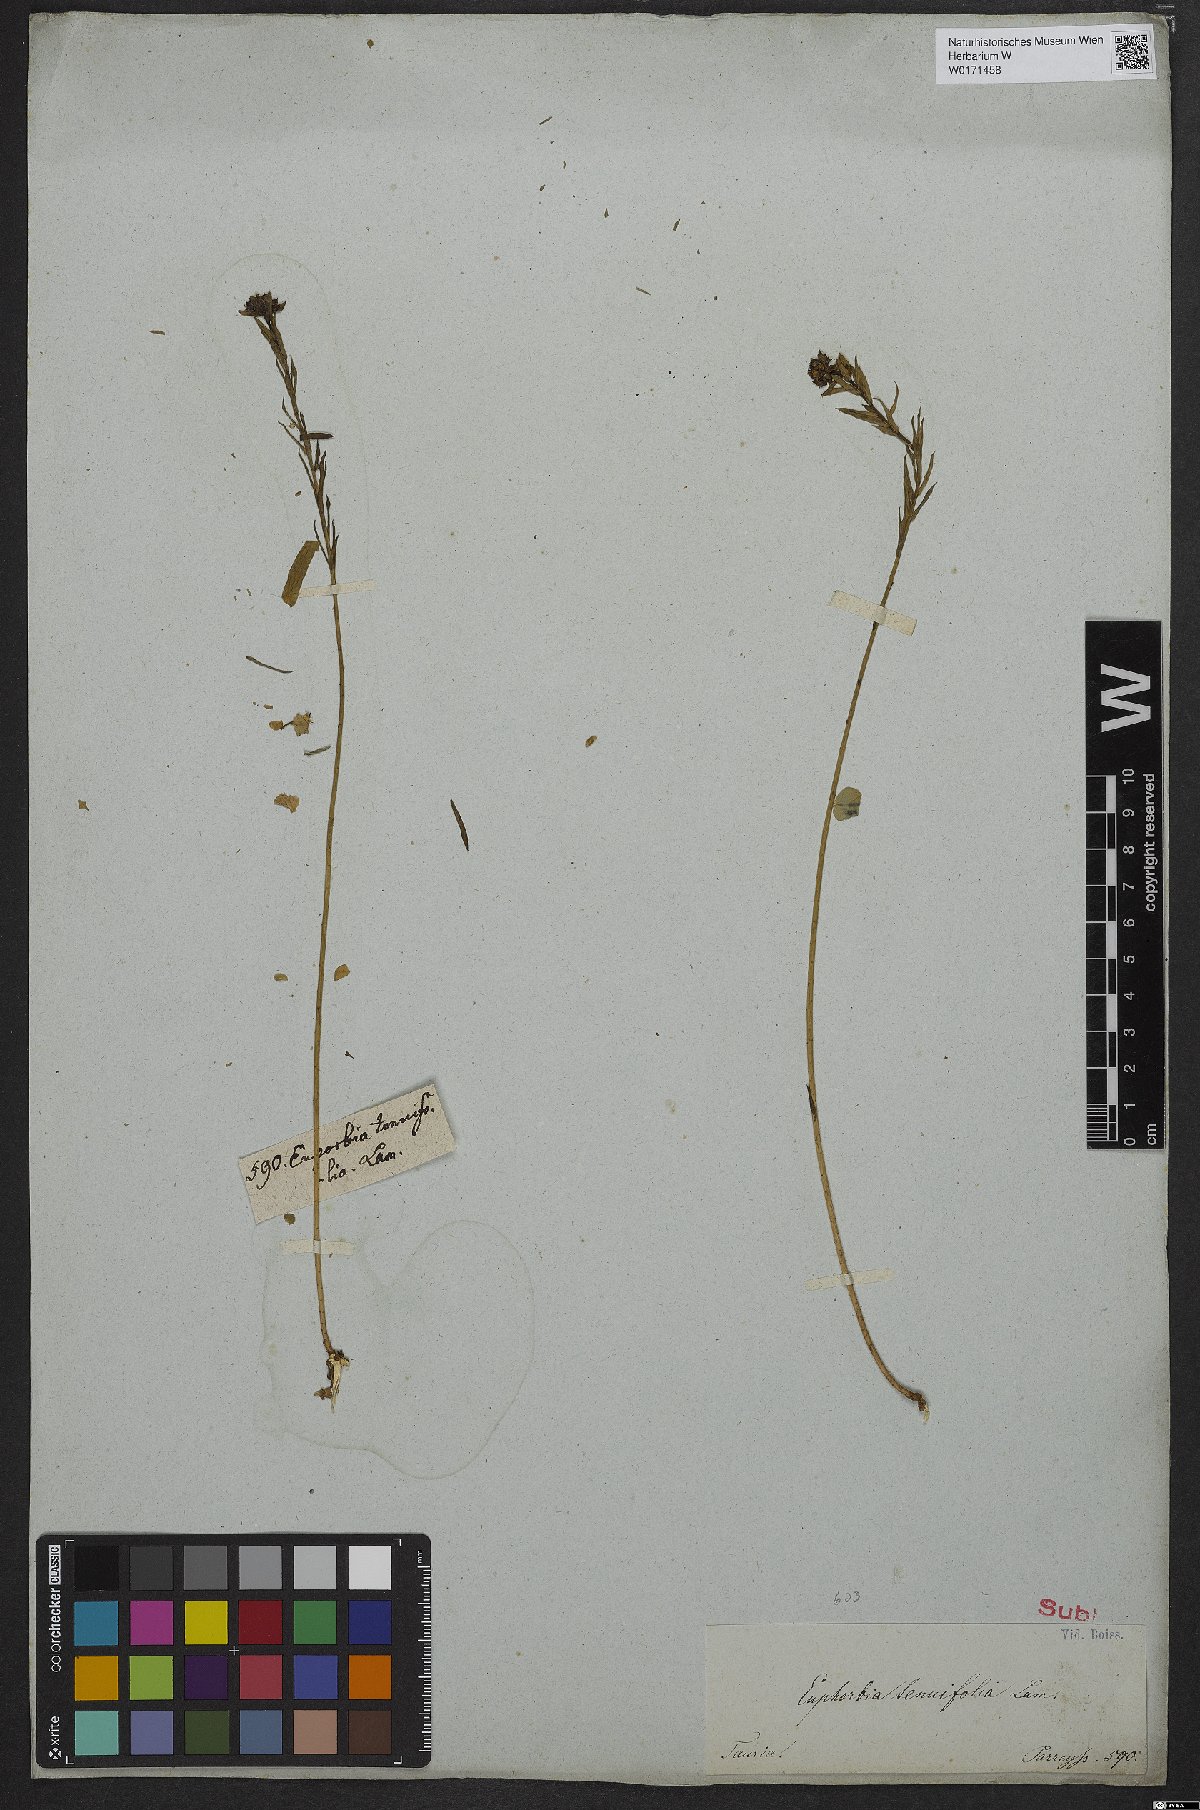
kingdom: Plantae
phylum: Tracheophyta
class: Magnoliopsida
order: Malpighiales
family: Euphorbiaceae
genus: Euphorbia
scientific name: Euphorbia graminifolia
